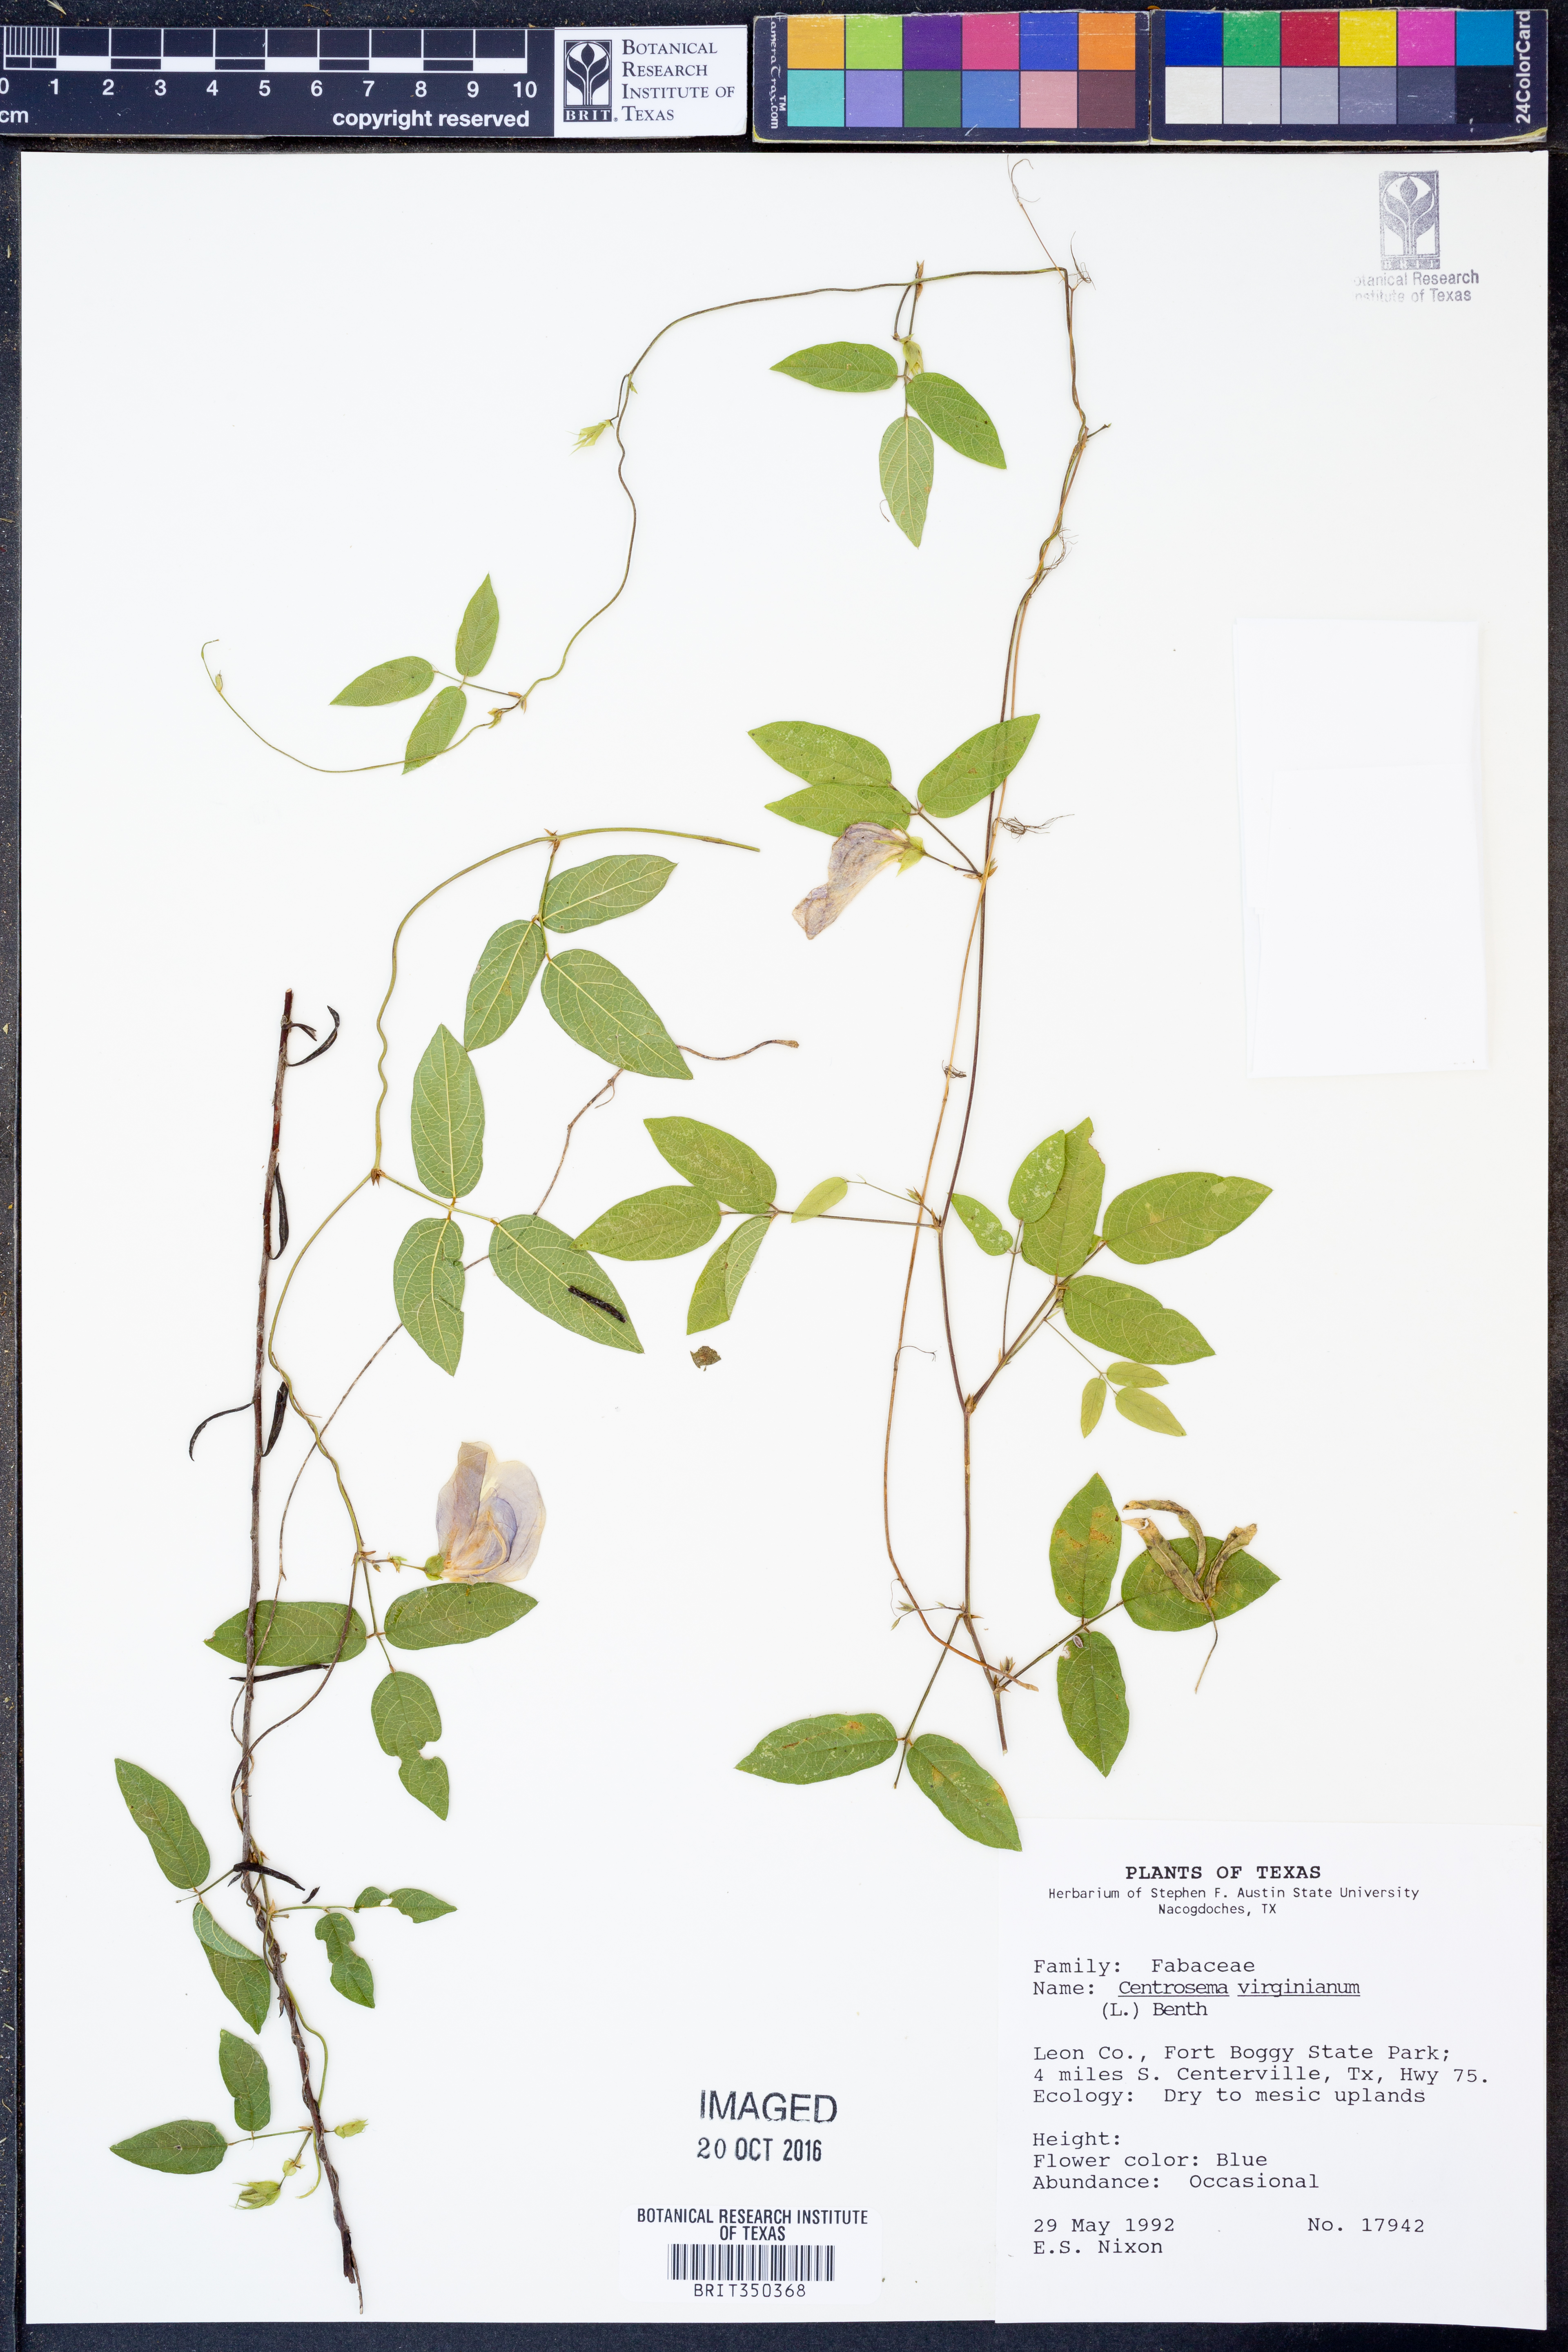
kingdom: Plantae
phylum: Tracheophyta
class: Magnoliopsida
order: Fabales
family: Fabaceae
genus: Centrosema
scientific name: Centrosema virginianum
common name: Butterfly-pea
